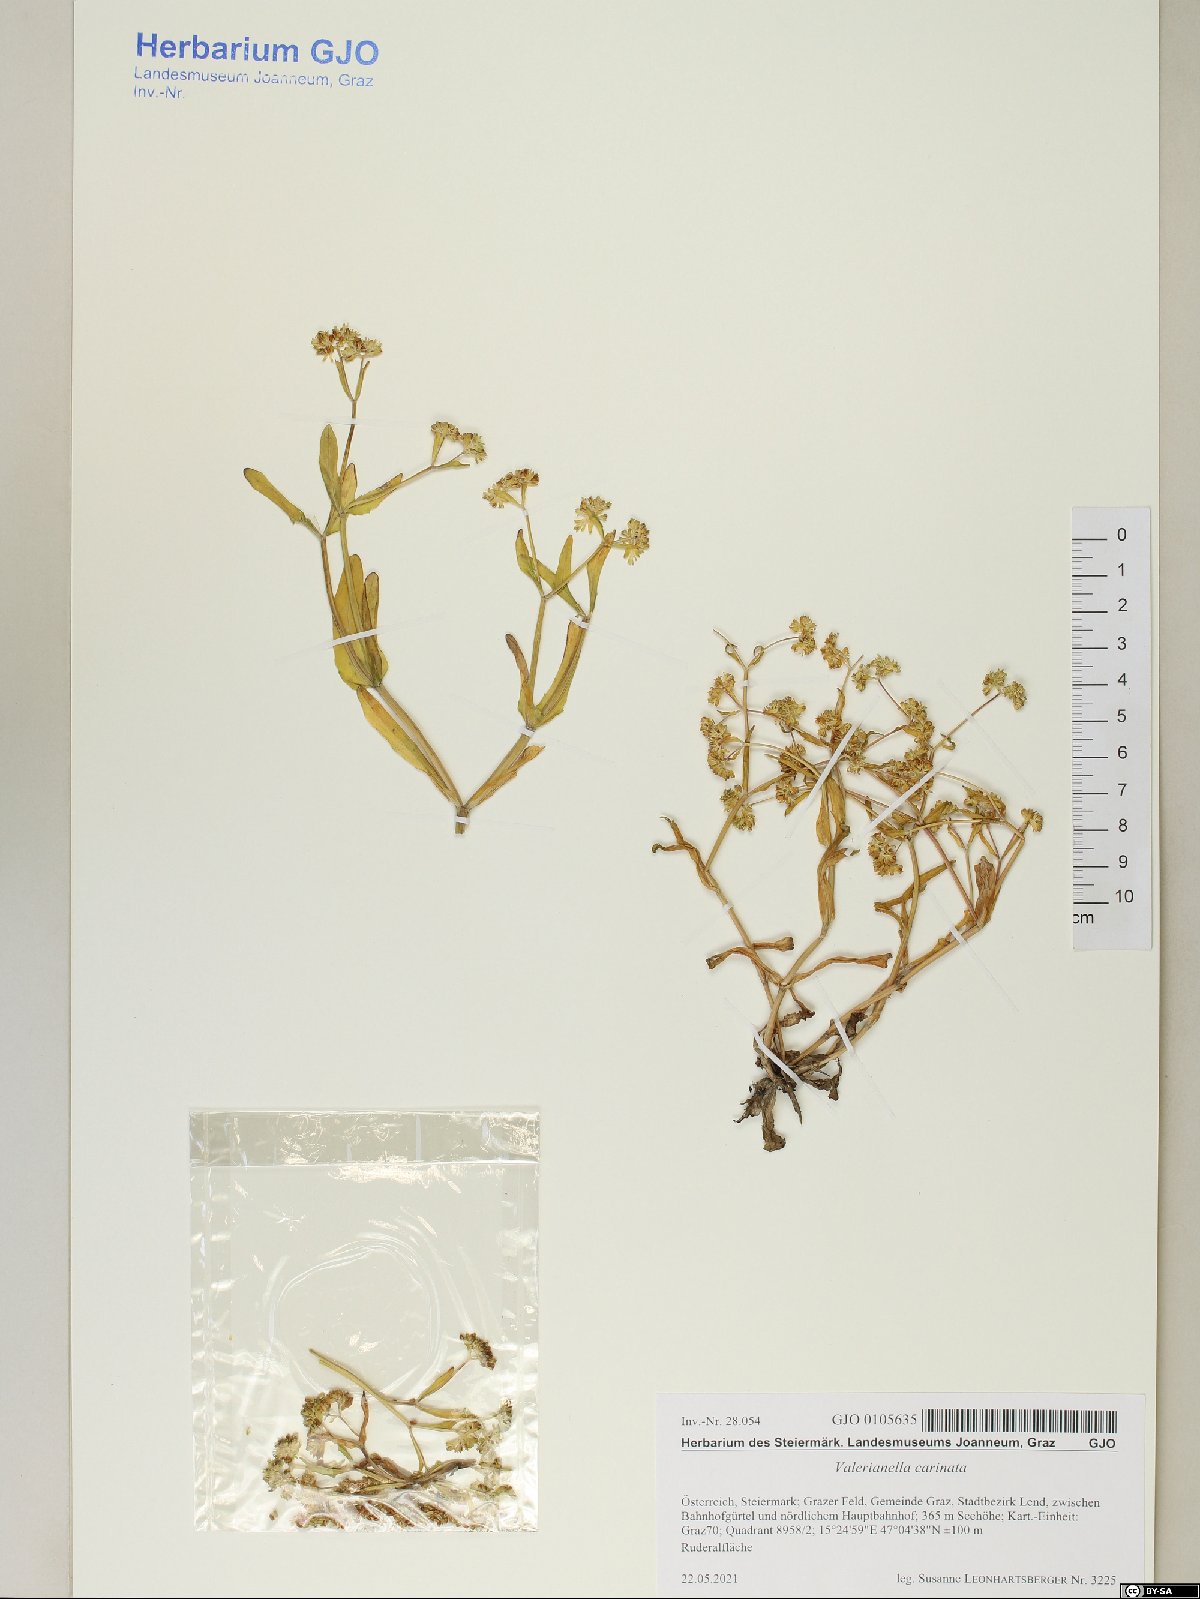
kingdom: Plantae
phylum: Tracheophyta
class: Magnoliopsida
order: Dipsacales
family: Caprifoliaceae
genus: Valerianella
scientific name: Valerianella carinata
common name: Keeled-fruited cornsalad
